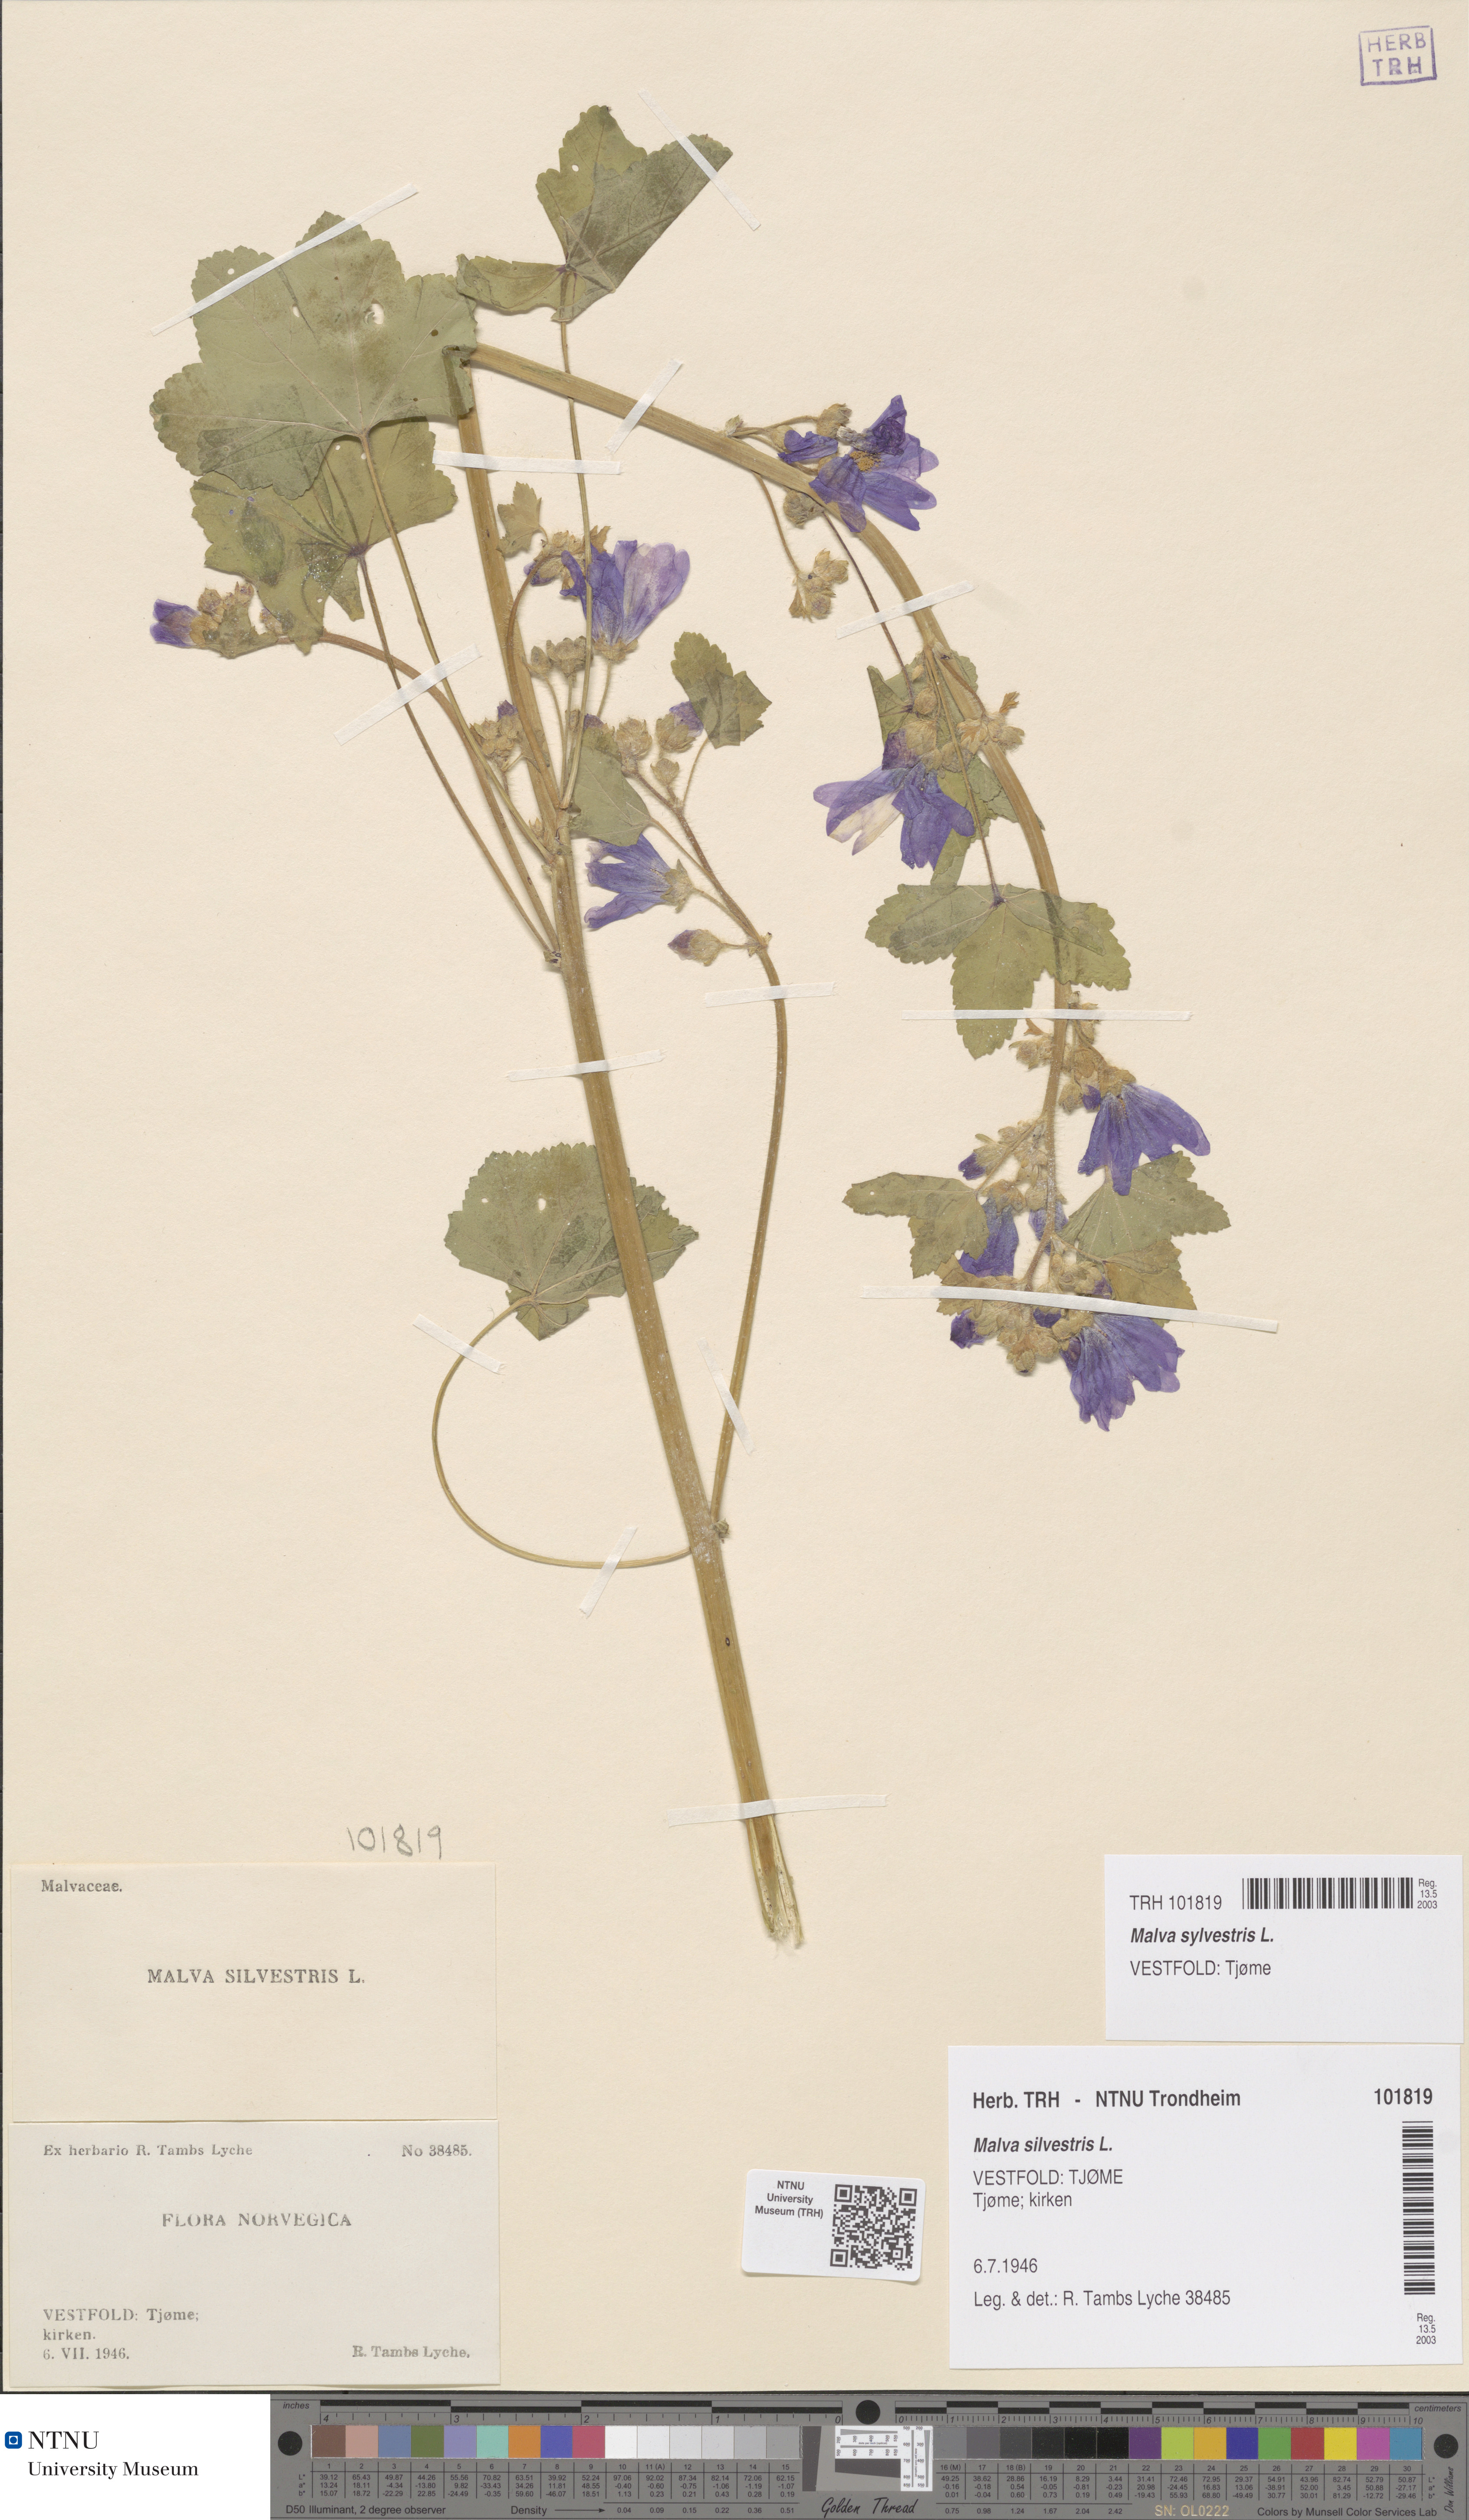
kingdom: Plantae
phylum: Tracheophyta
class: Magnoliopsida
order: Malvales
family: Malvaceae
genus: Malva
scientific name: Malva sylvestris
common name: Common mallow
